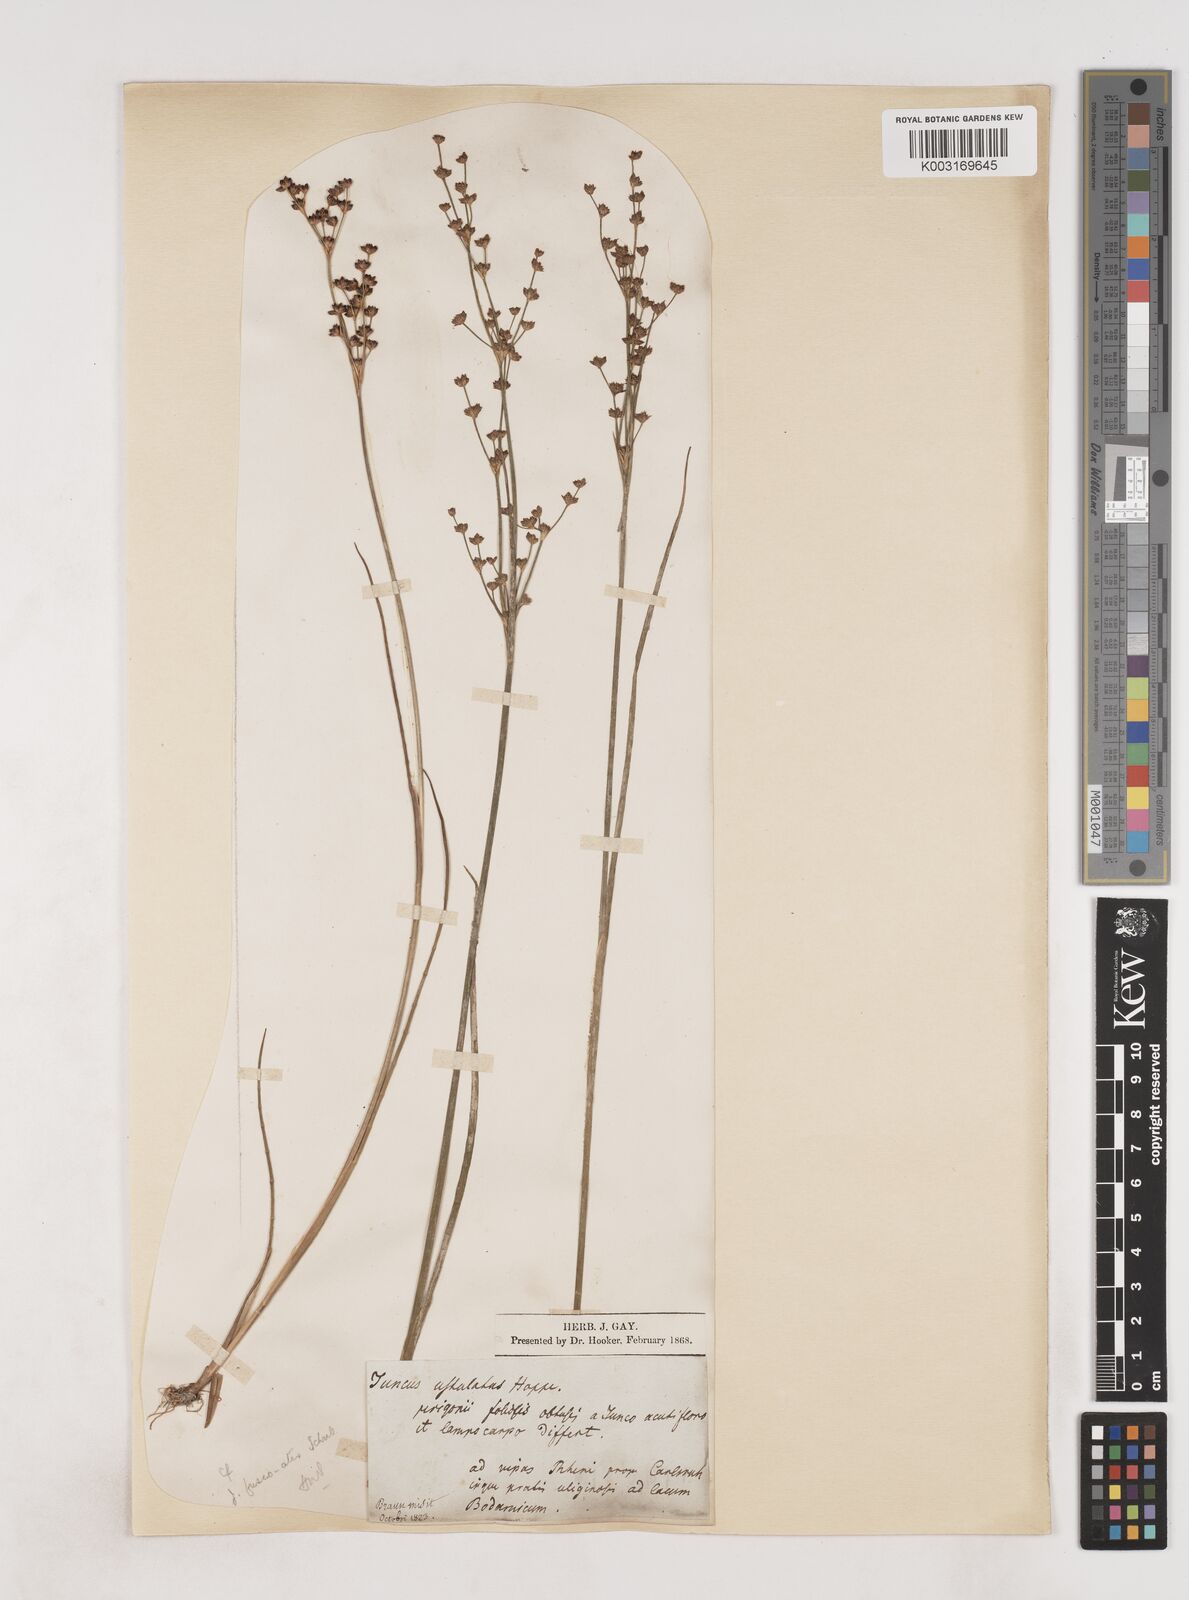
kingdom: Plantae
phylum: Tracheophyta
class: Liliopsida
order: Poales
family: Juncaceae
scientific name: Juncaceae
